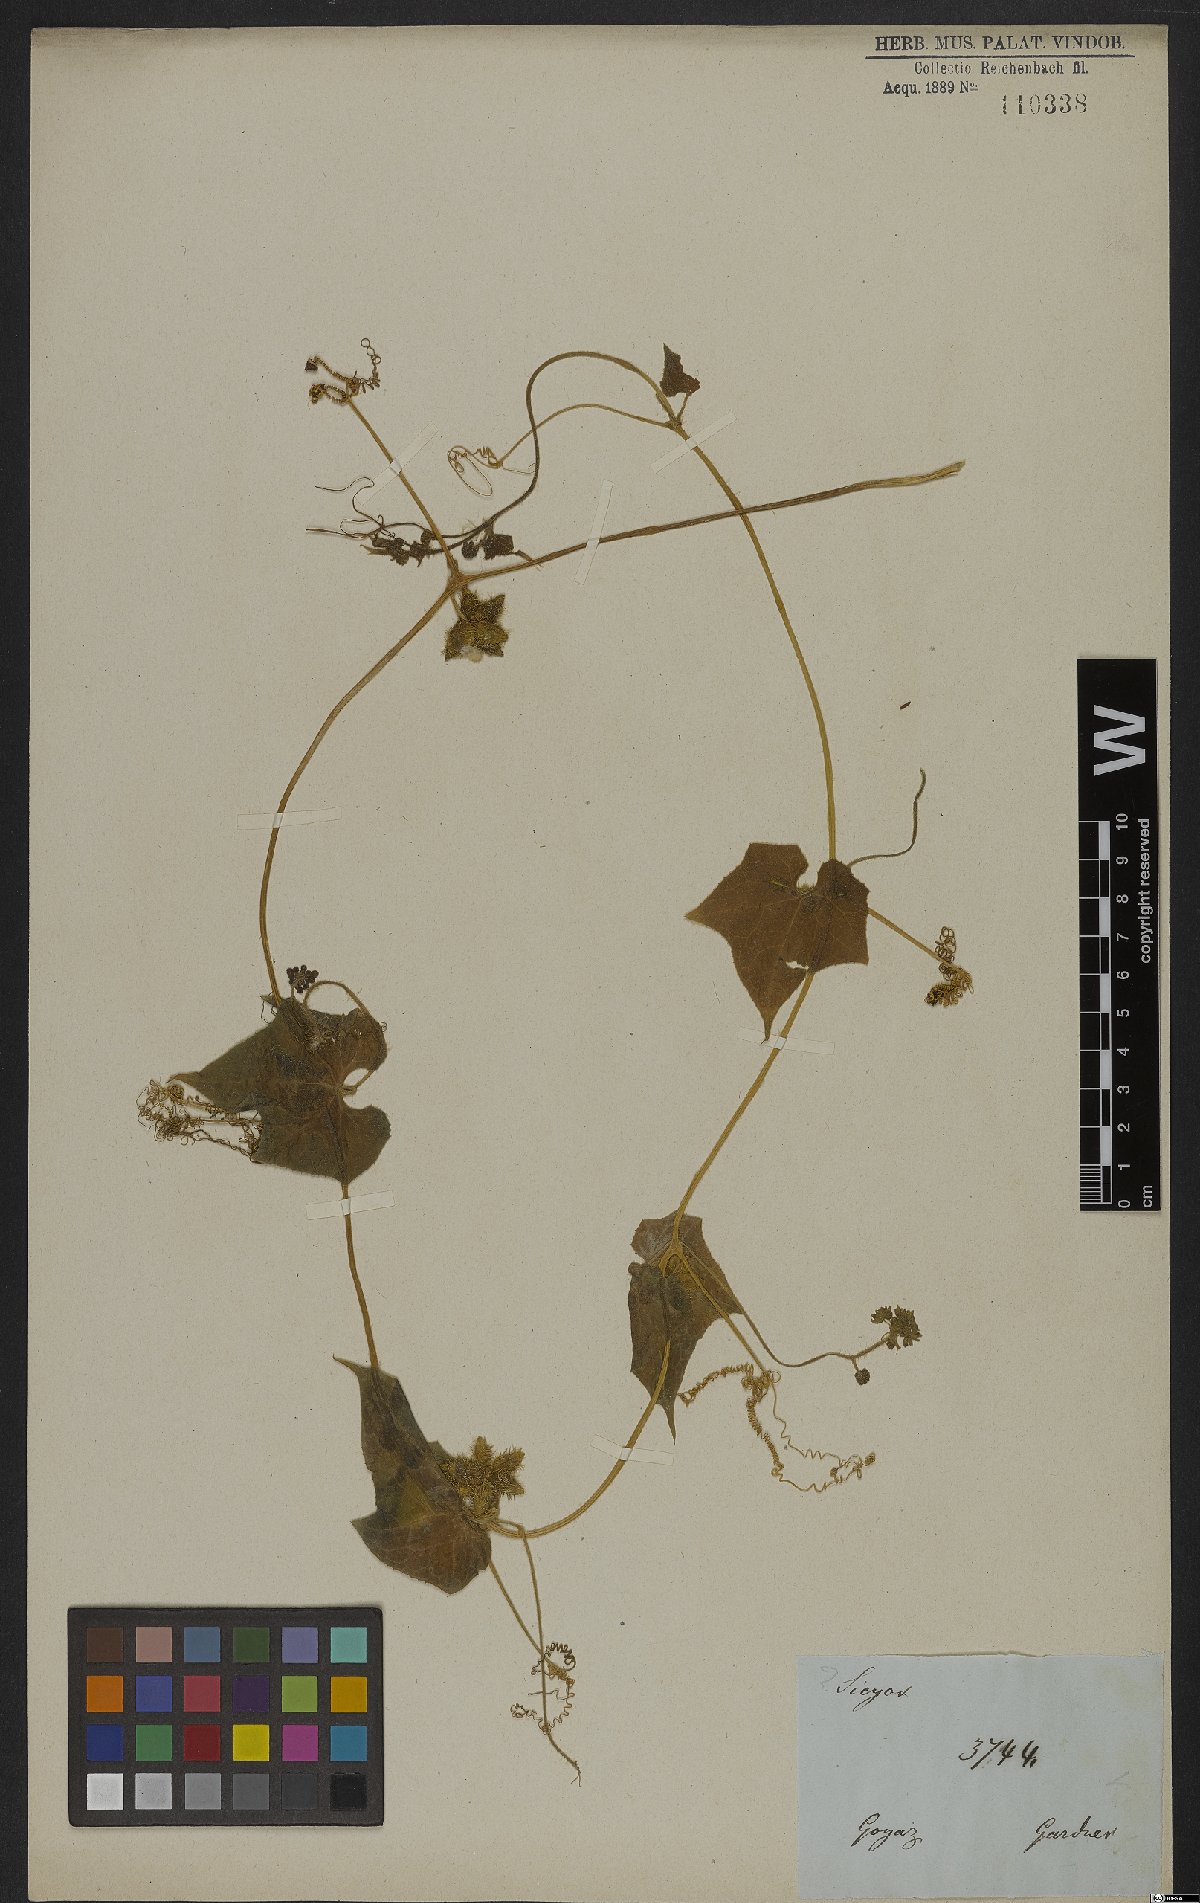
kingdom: Plantae
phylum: Tracheophyta
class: Magnoliopsida
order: Cucurbitales
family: Cucurbitaceae
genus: Sicyos
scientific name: Sicyos polyacanthus
